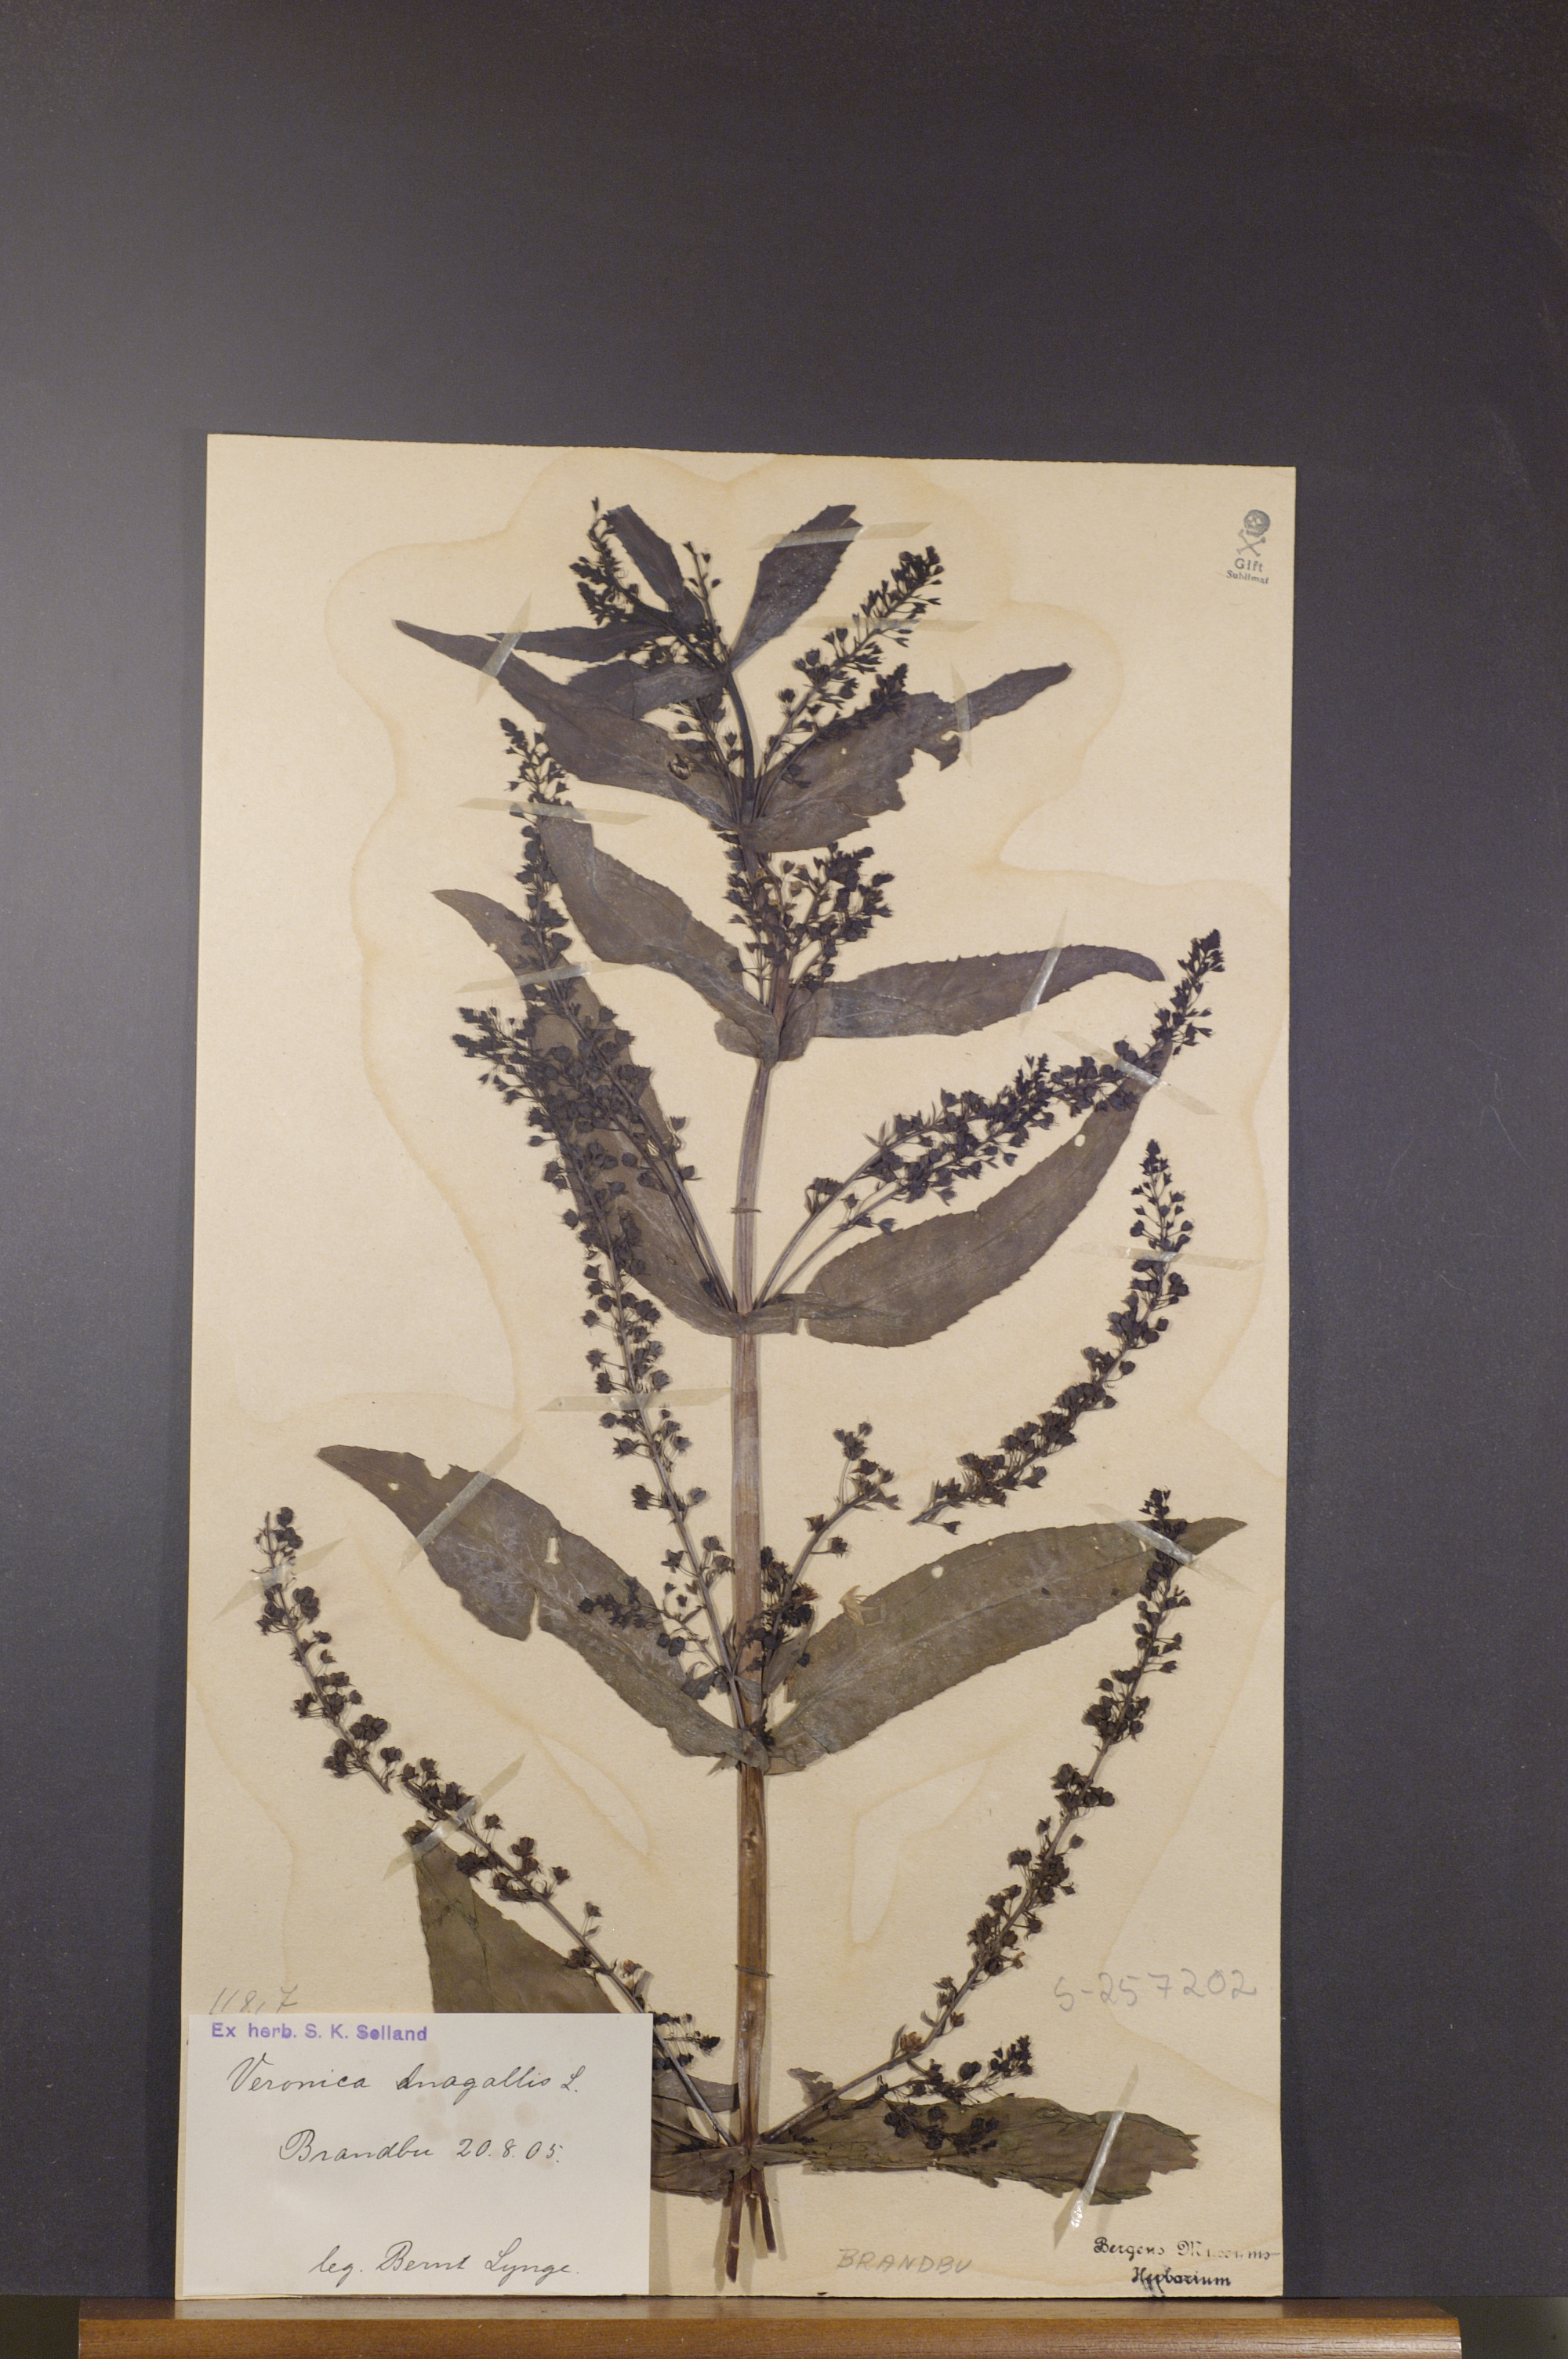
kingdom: Plantae
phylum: Tracheophyta
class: Magnoliopsida
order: Lamiales
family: Plantaginaceae
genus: Veronica
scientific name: Veronica anagallis-aquatica
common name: Water speedwell
